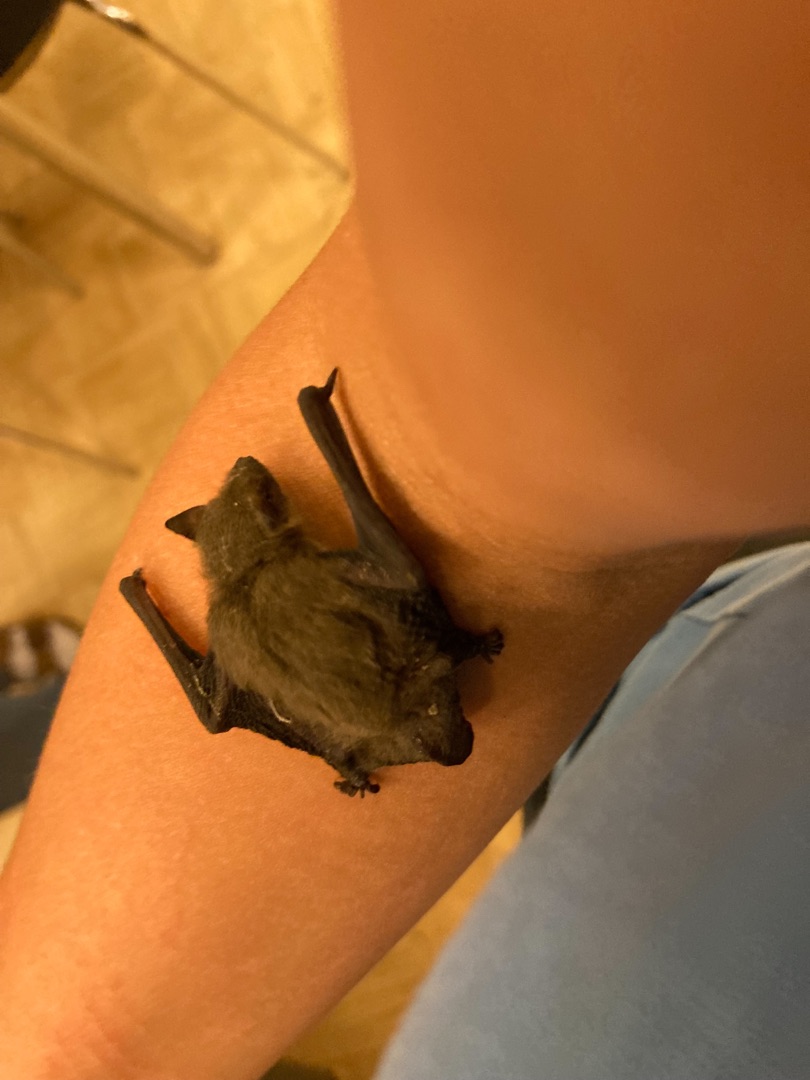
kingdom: Animalia
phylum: Chordata
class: Mammalia
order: Chiroptera
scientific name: Chiroptera
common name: Flagermus
